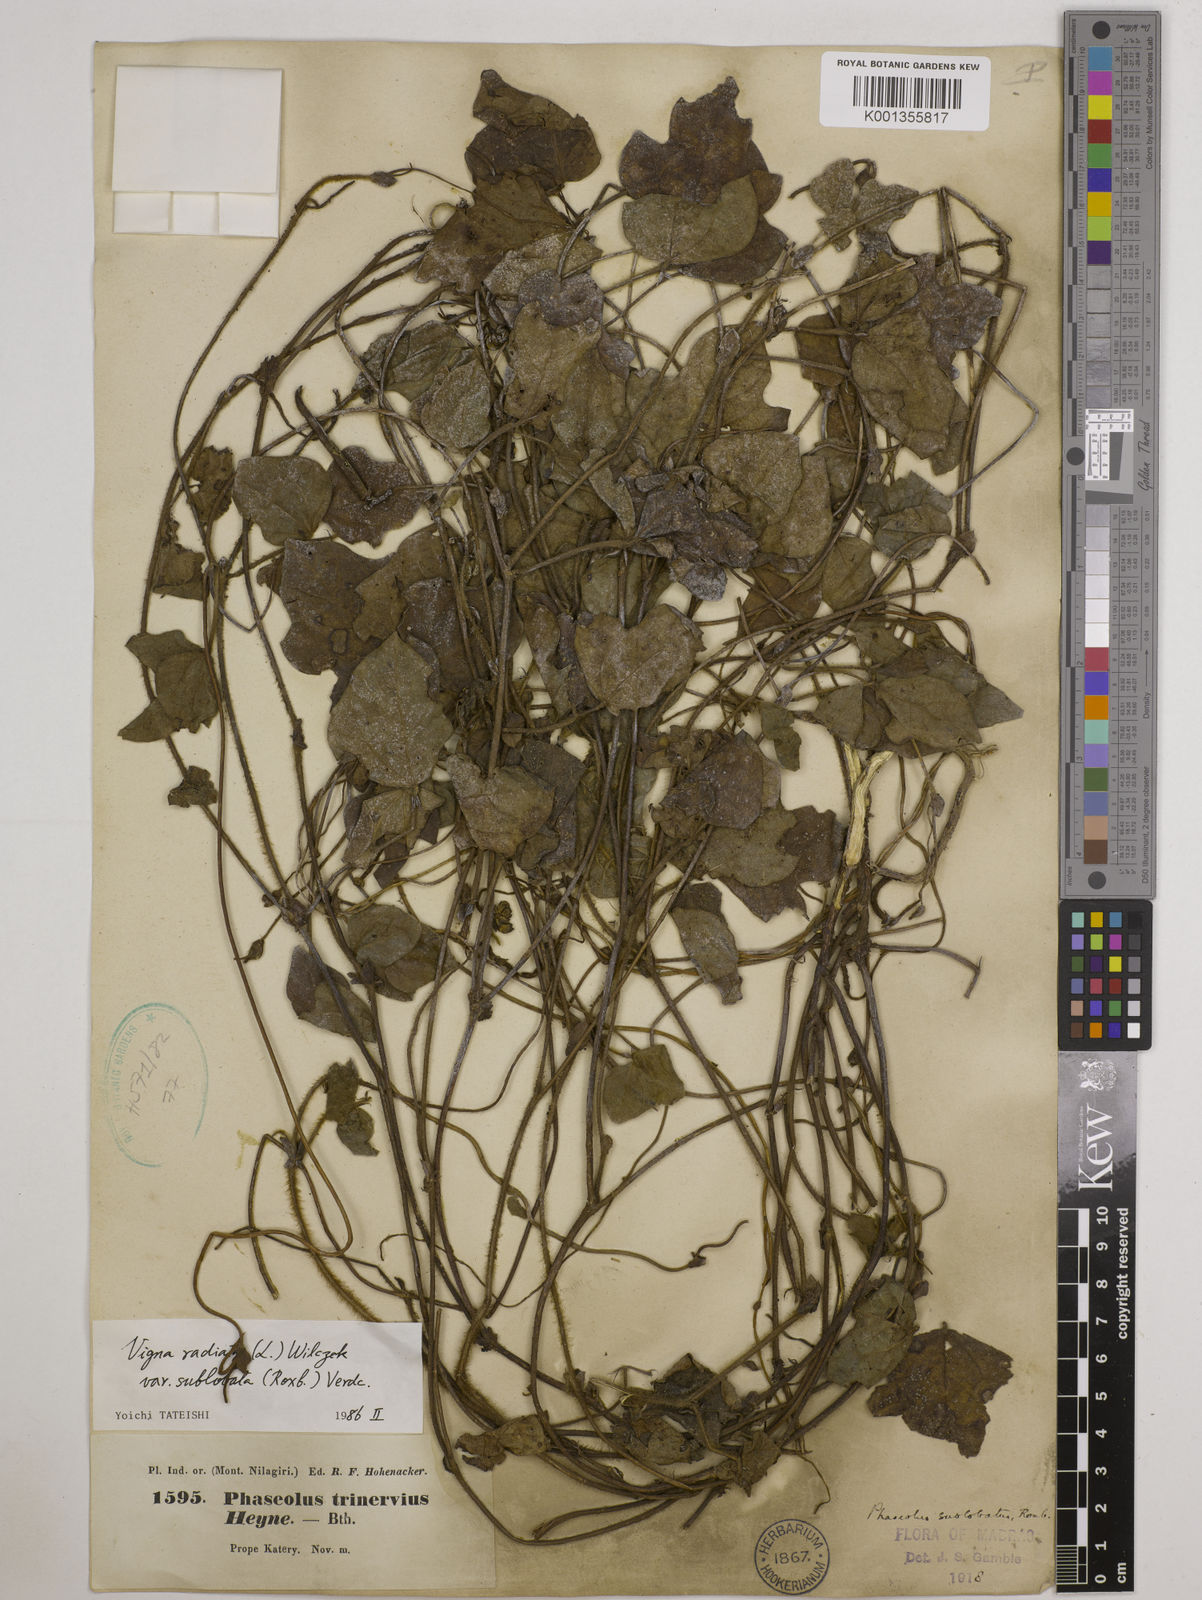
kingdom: Plantae
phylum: Tracheophyta
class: Magnoliopsida
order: Fabales
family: Fabaceae
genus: Vigna
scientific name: Vigna radiata
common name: Mung-bean
